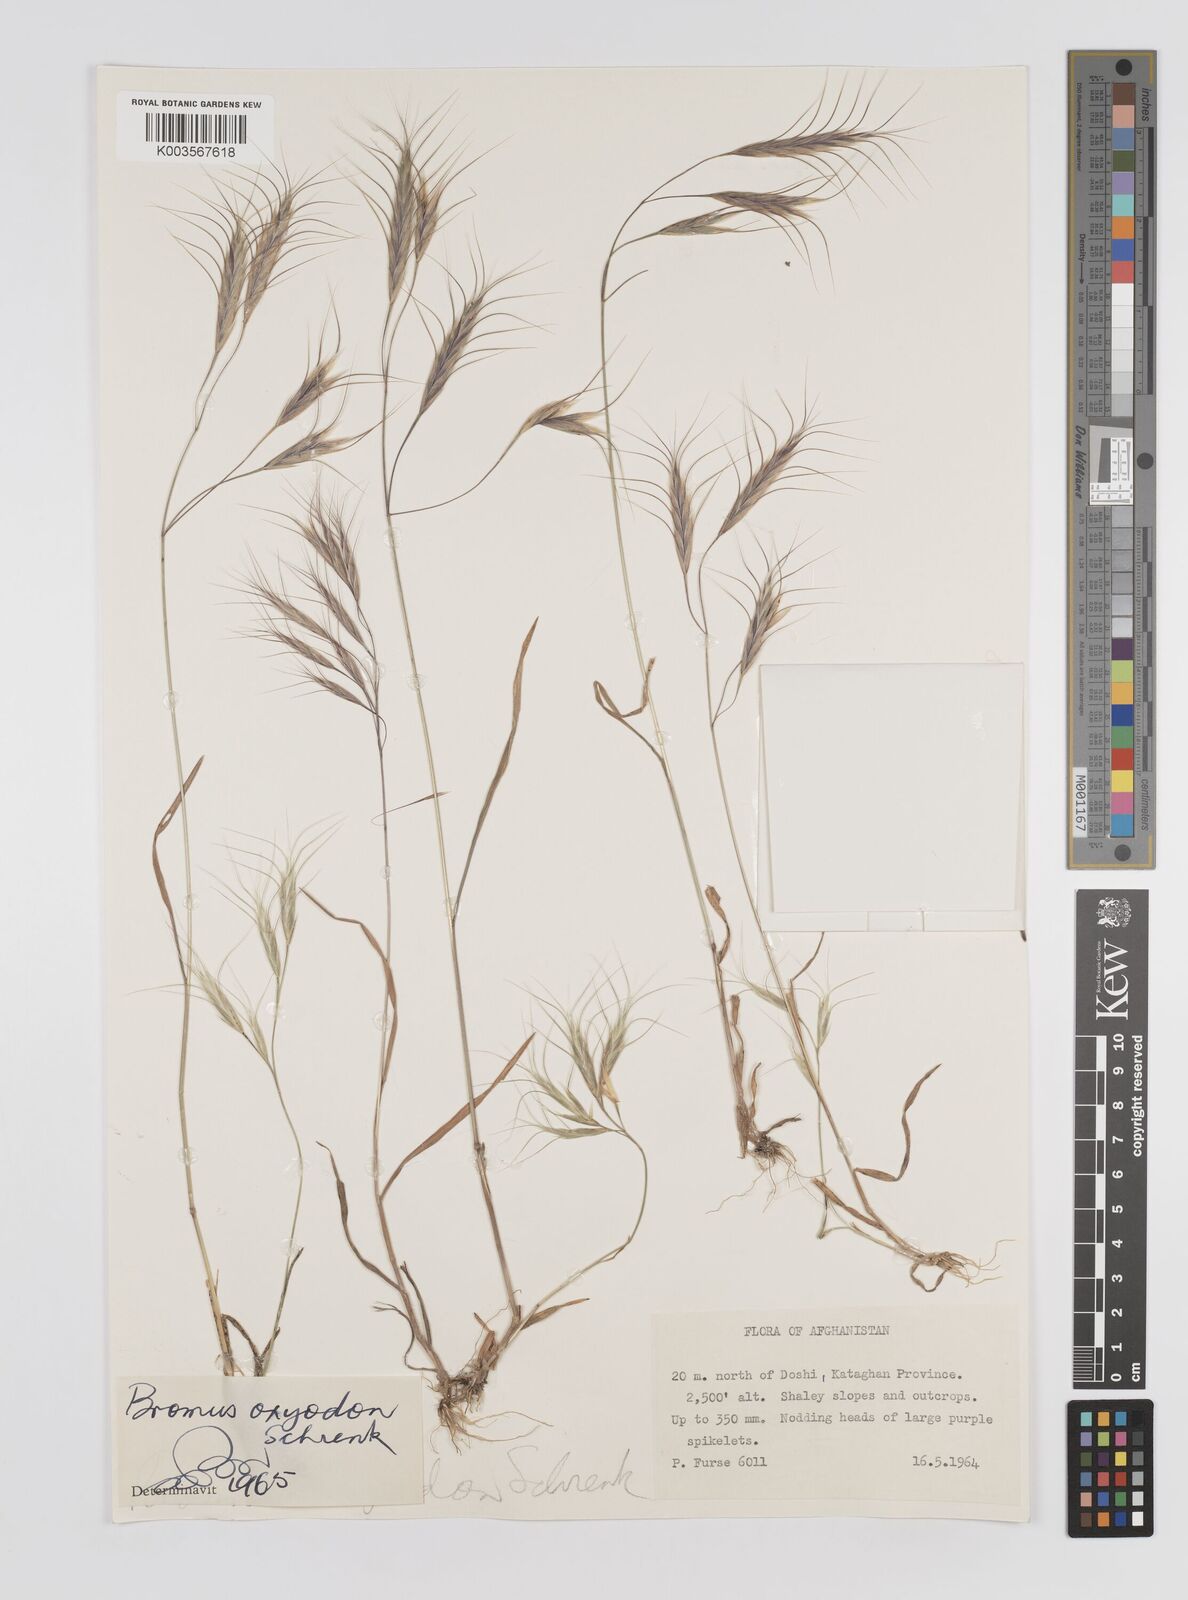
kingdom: Plantae
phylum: Tracheophyta
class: Liliopsida
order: Poales
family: Poaceae
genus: Bromus
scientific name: Bromus oxyodon
